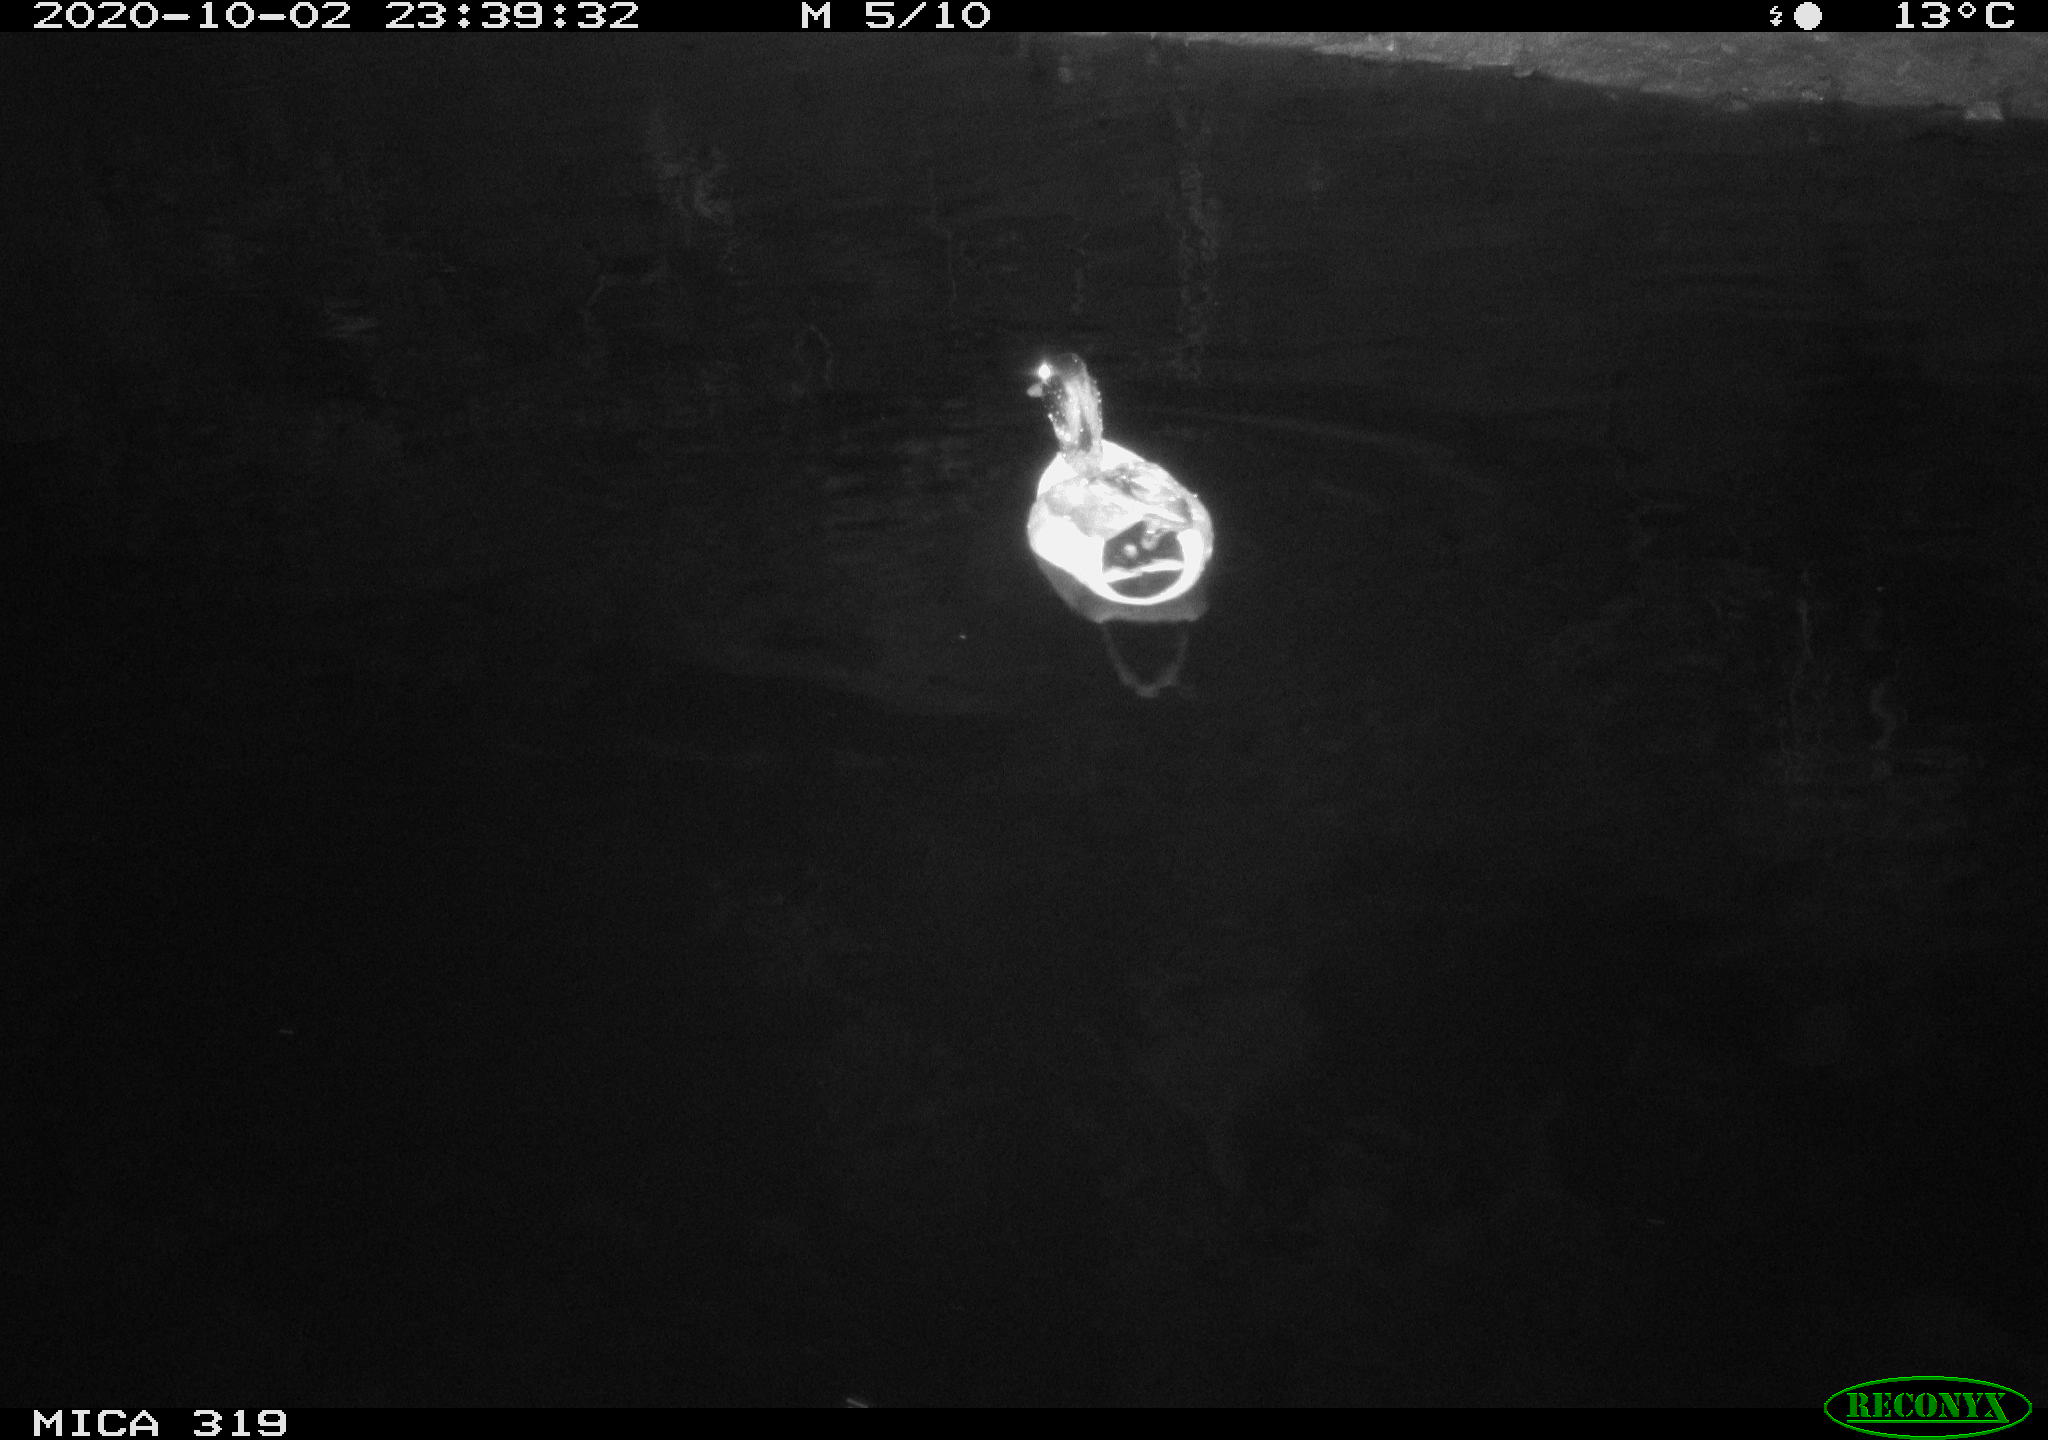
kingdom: Animalia
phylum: Chordata
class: Aves
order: Anseriformes
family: Anatidae
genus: Anas
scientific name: Anas platyrhynchos
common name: Mallard
